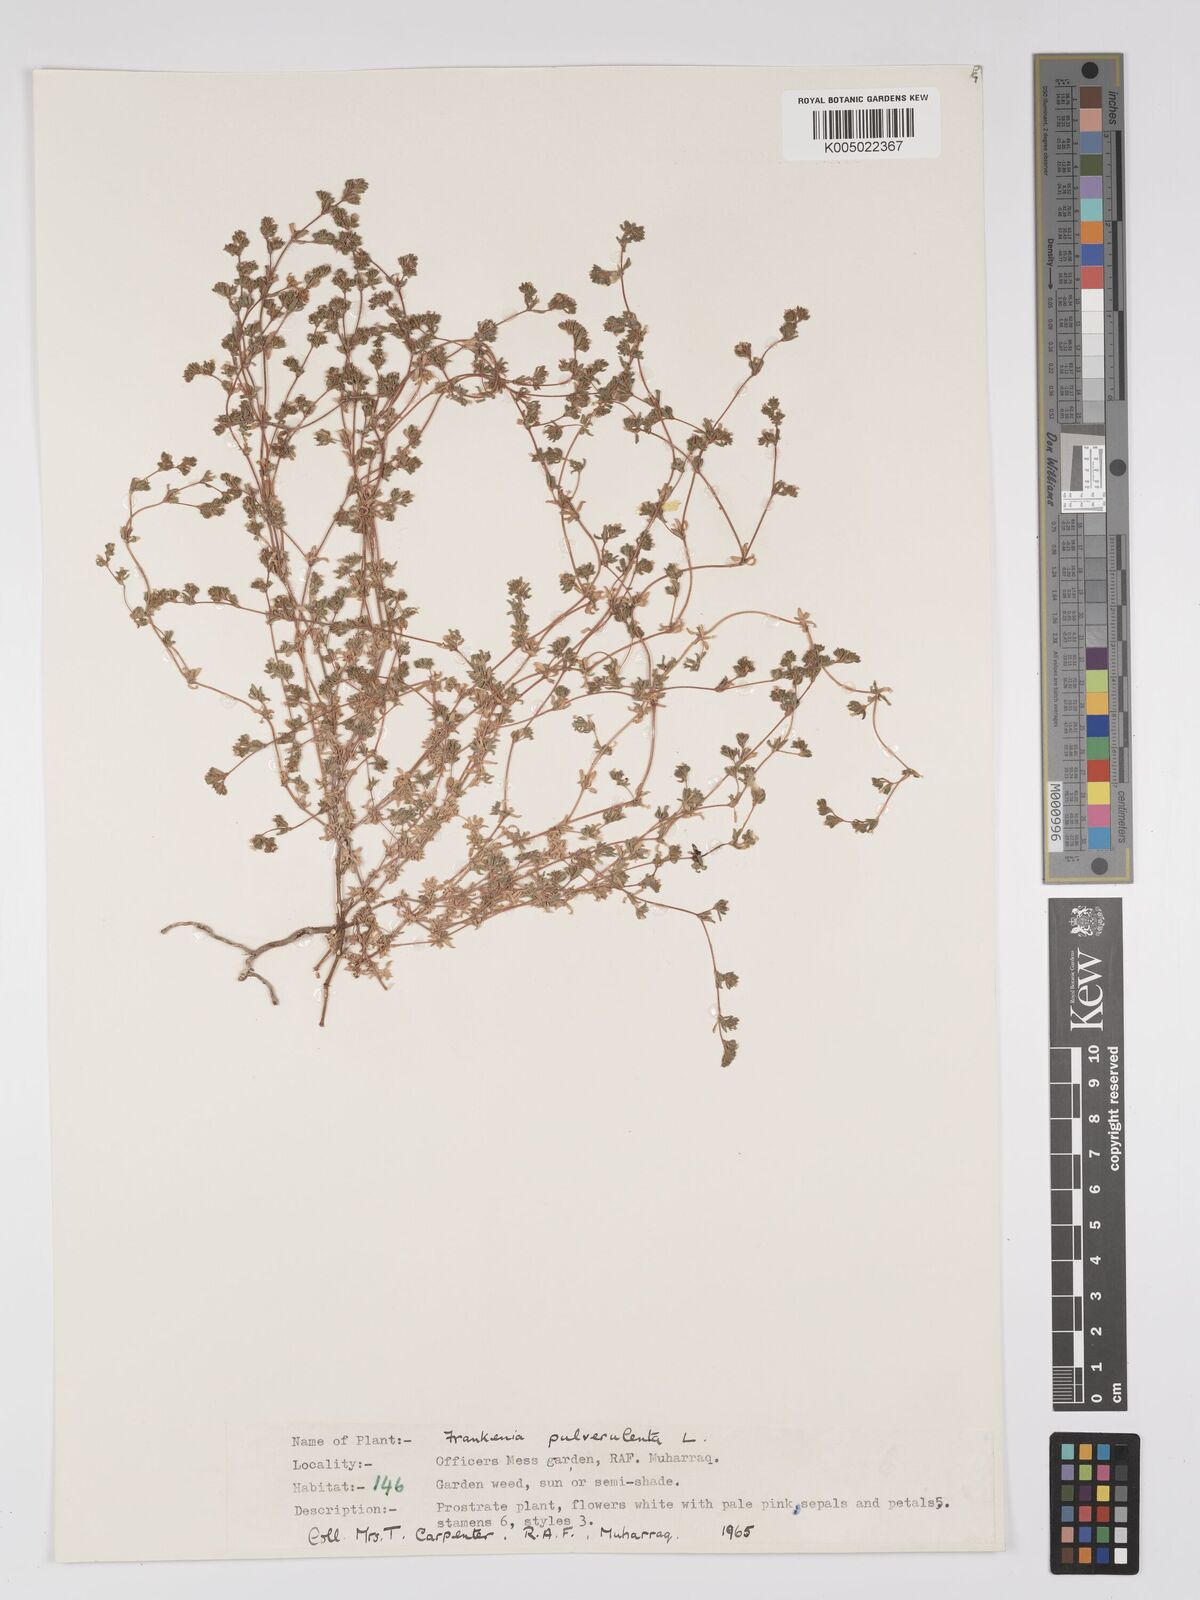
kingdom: Plantae
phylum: Tracheophyta
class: Magnoliopsida
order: Caryophyllales
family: Frankeniaceae
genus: Frankenia
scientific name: Frankenia pulverulenta
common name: European seaheath
